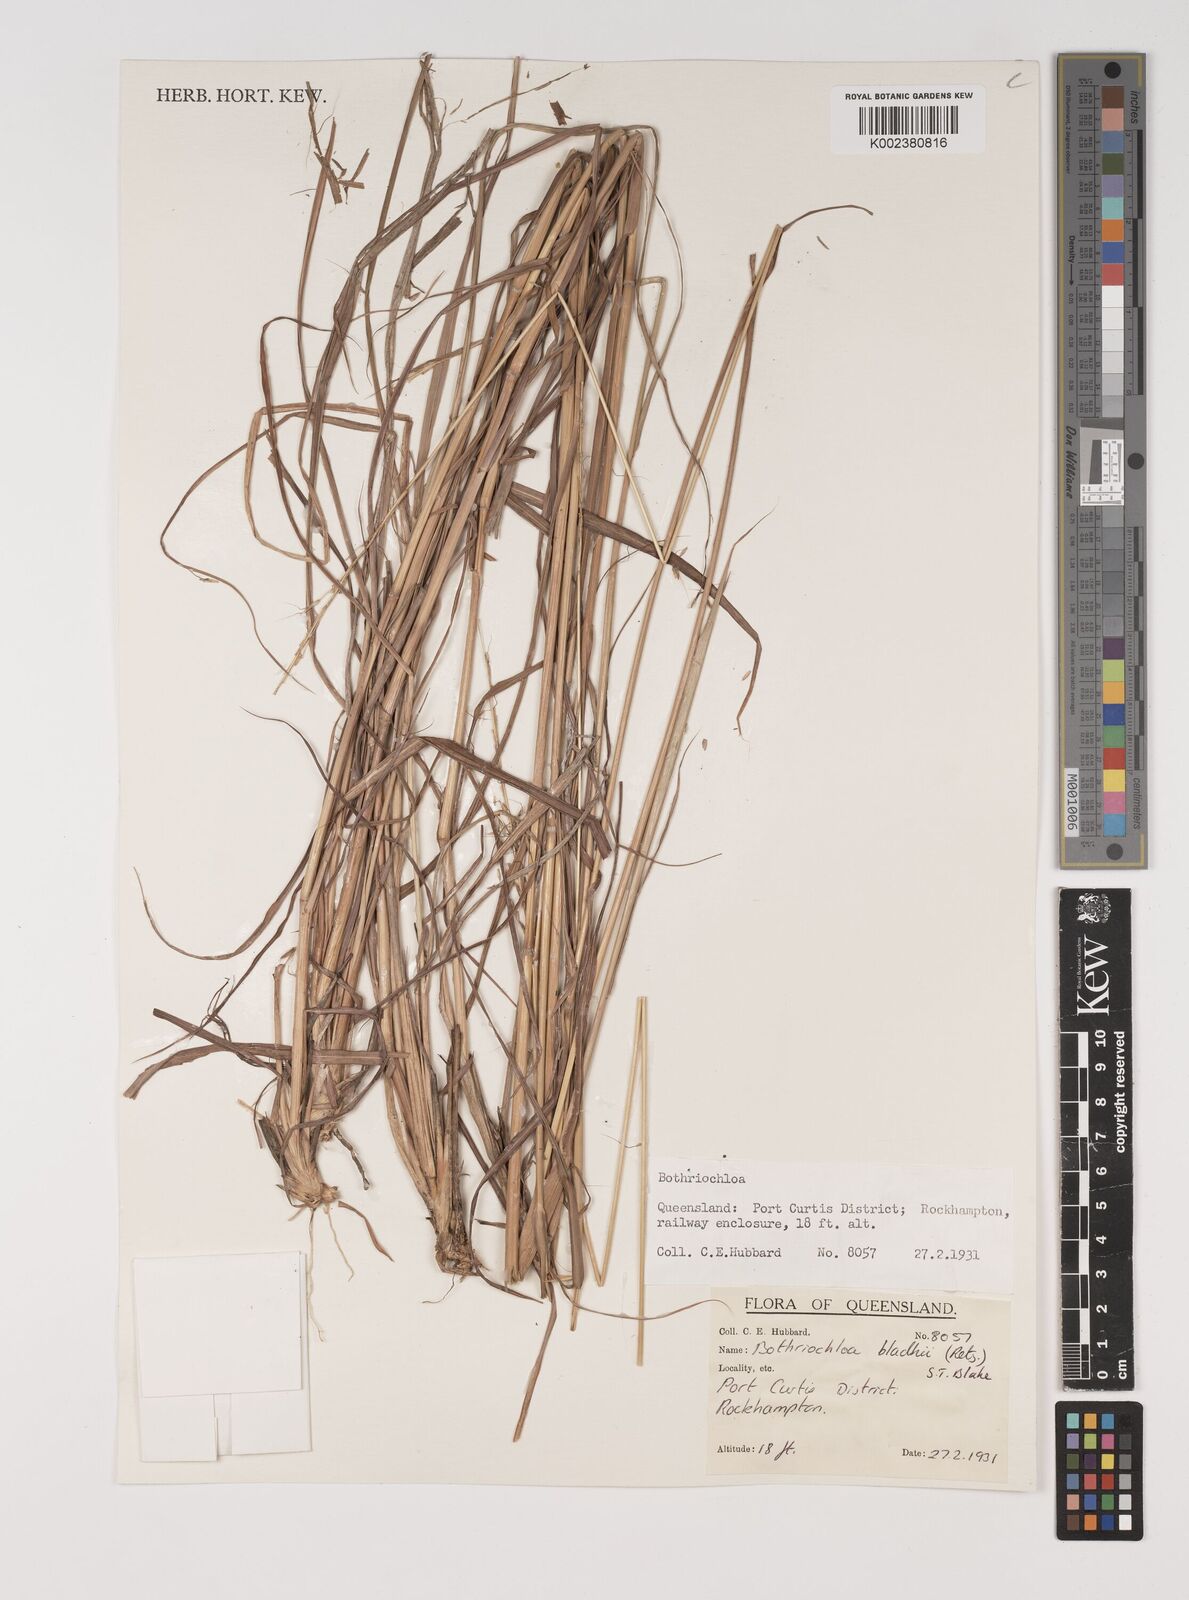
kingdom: Plantae
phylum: Tracheophyta
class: Liliopsida
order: Poales
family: Poaceae
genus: Bothriochloa
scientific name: Bothriochloa bladhii
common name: Caucasian bluestem
